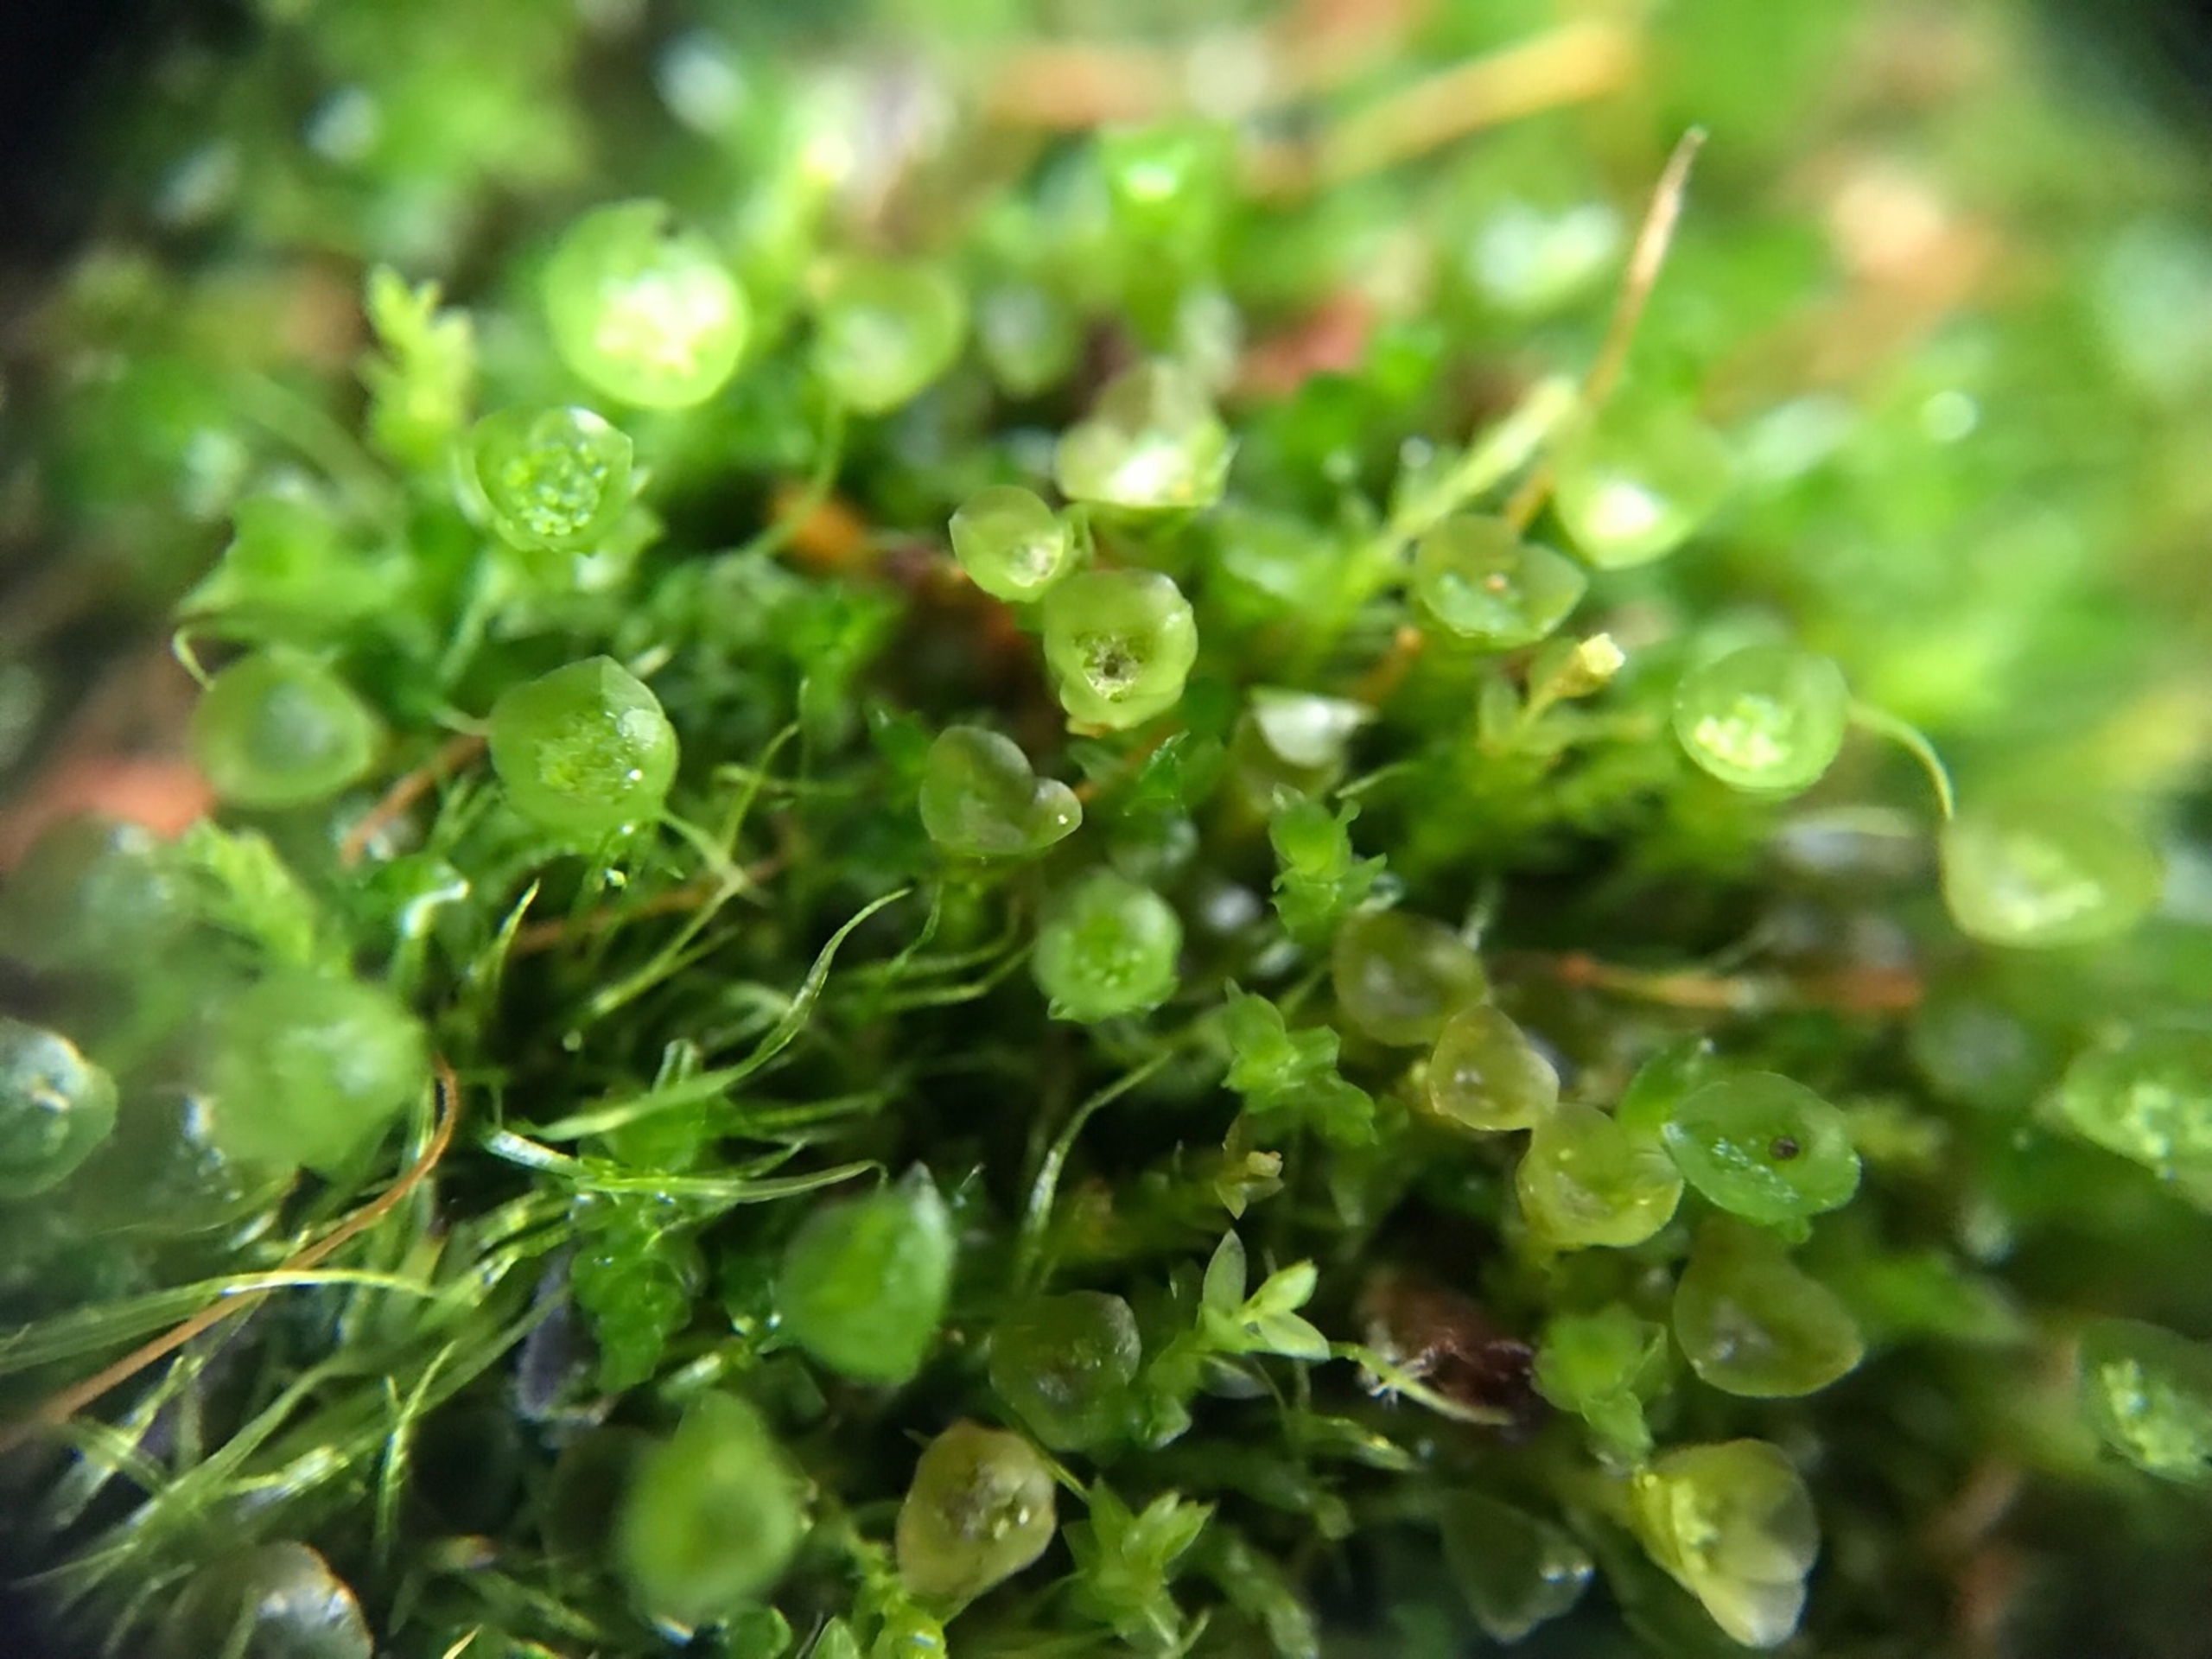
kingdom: Plantae
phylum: Bryophyta
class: Polytrichopsida
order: Tetraphidales
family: Tetraphidaceae
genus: Tetraphis
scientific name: Tetraphis pellucida
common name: Almindelig firtand
